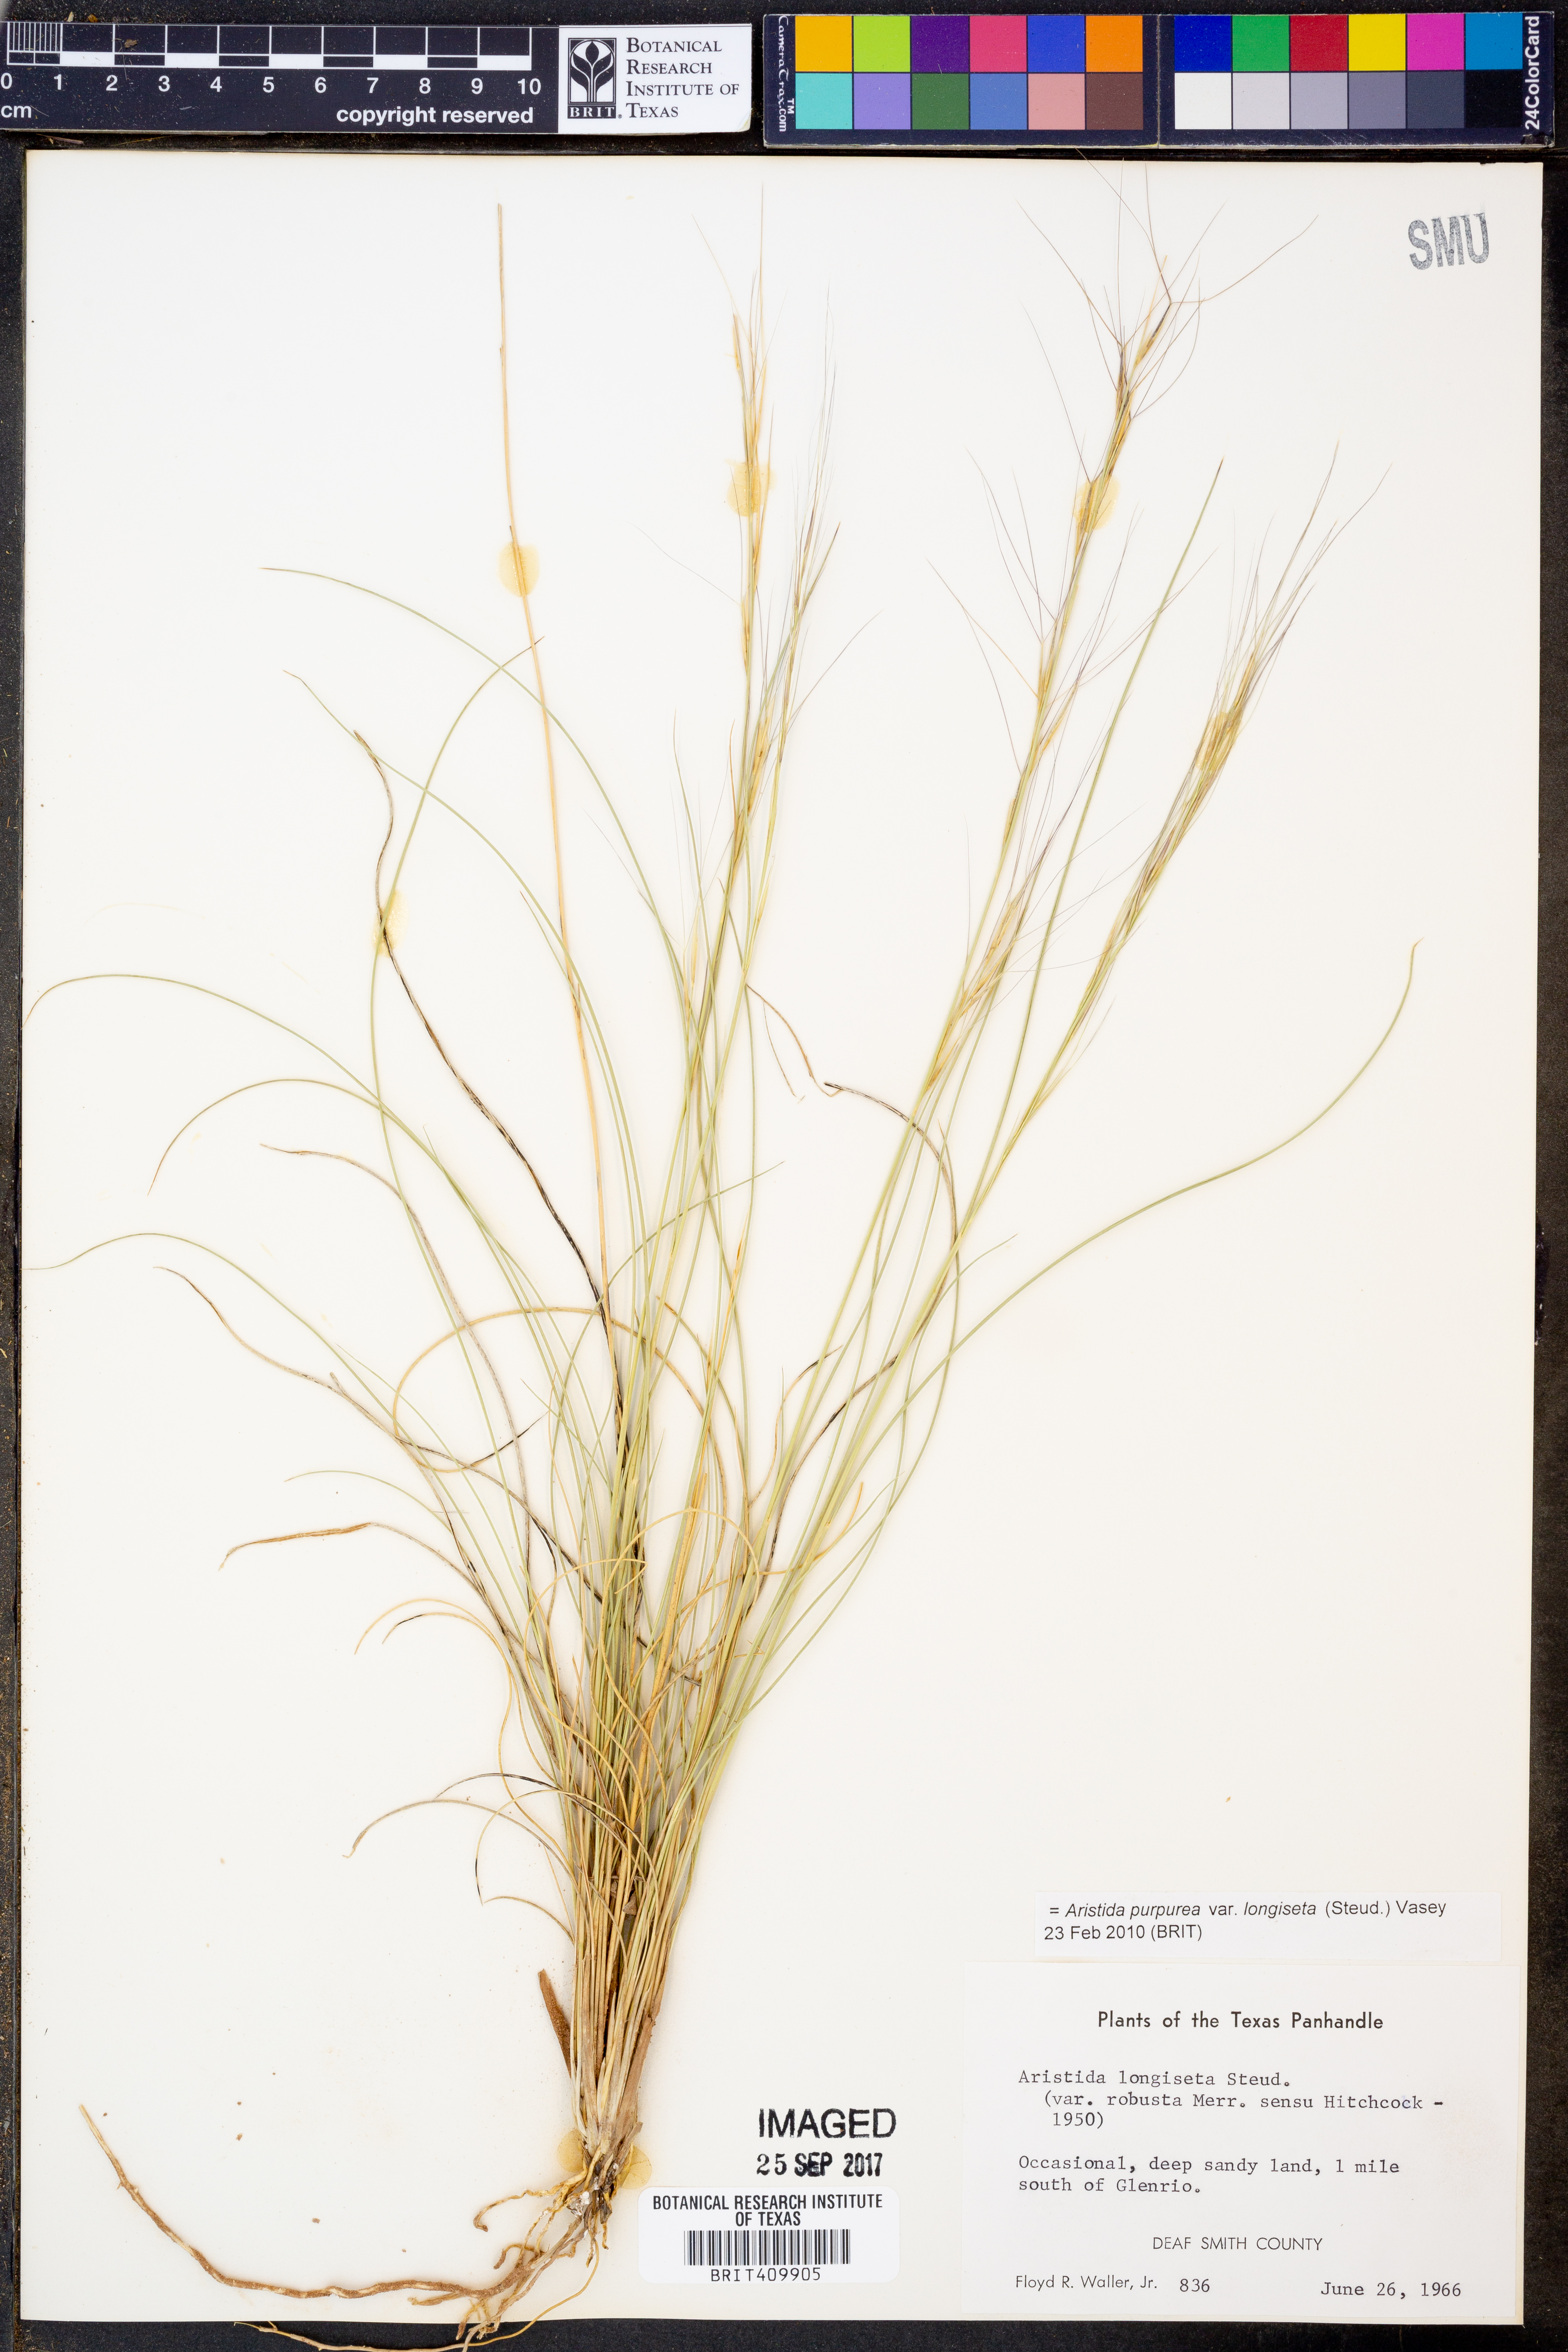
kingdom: Plantae
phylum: Tracheophyta
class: Liliopsida
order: Poales
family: Poaceae
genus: Aristida
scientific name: Aristida longiseta
